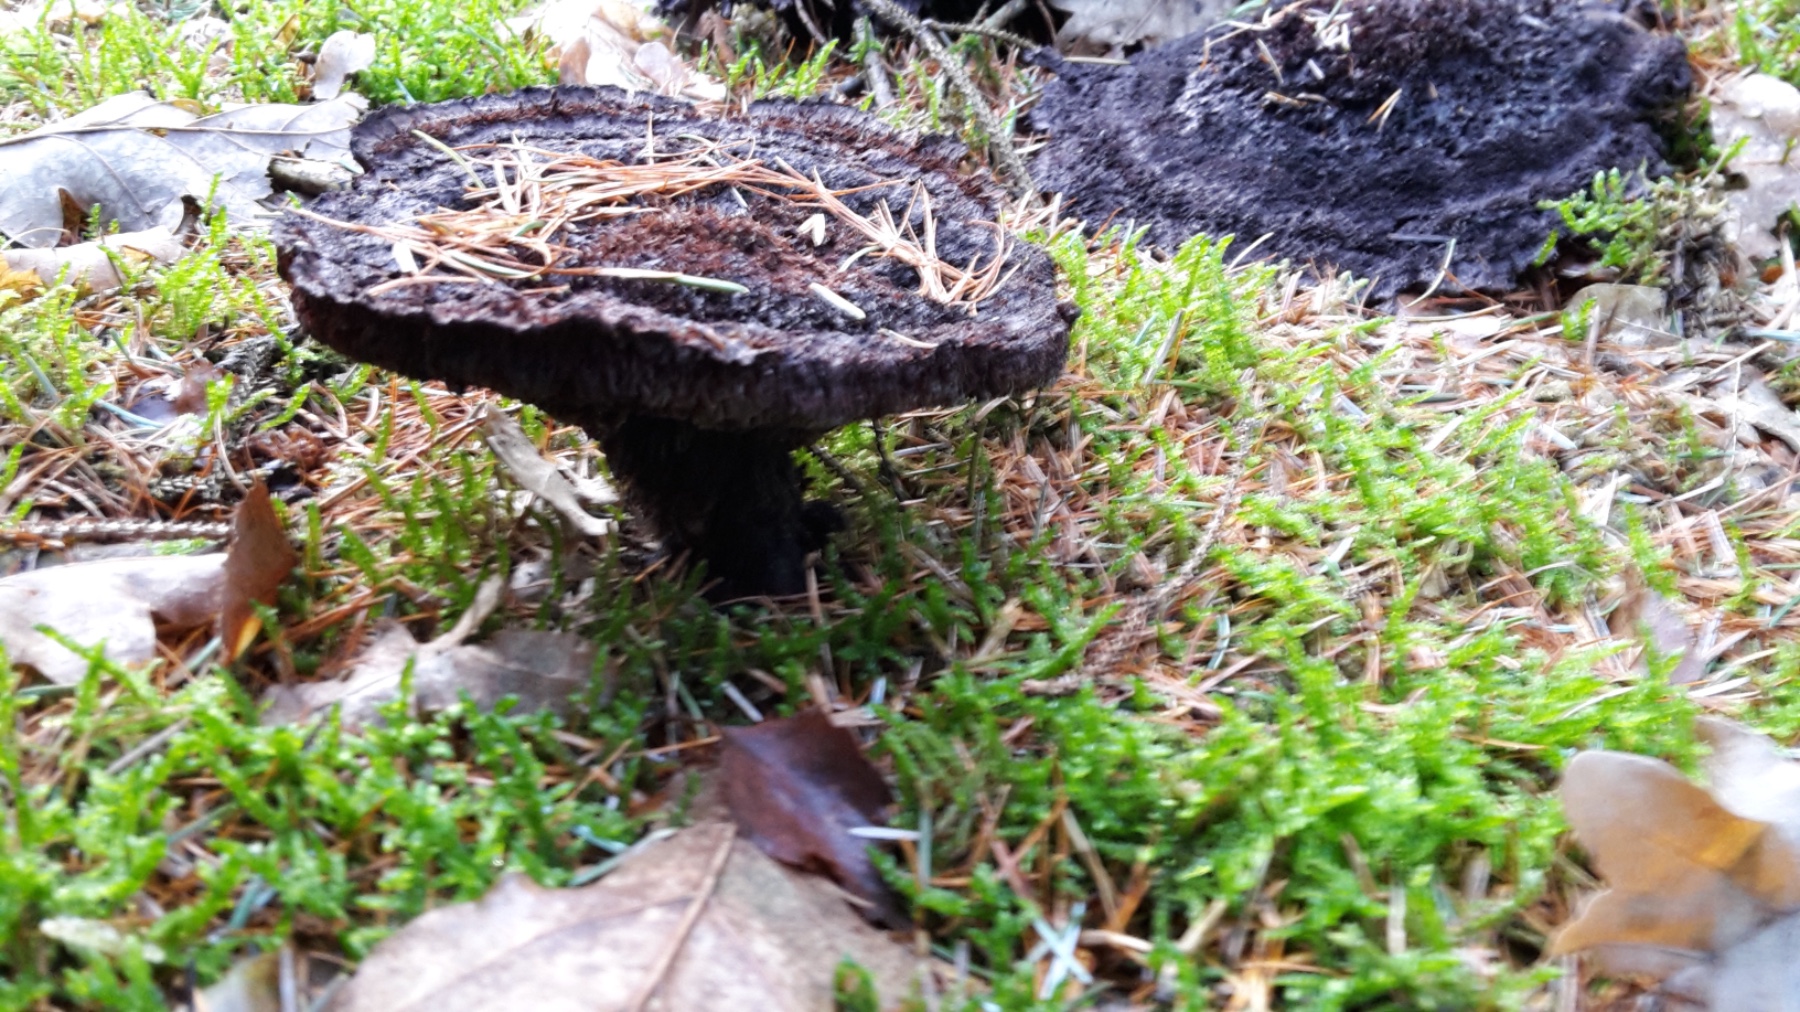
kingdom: Fungi
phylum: Basidiomycota
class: Agaricomycetes
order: Polyporales
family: Laetiporaceae
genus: Phaeolus
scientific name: Phaeolus schweinitzii
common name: brunporesvamp
